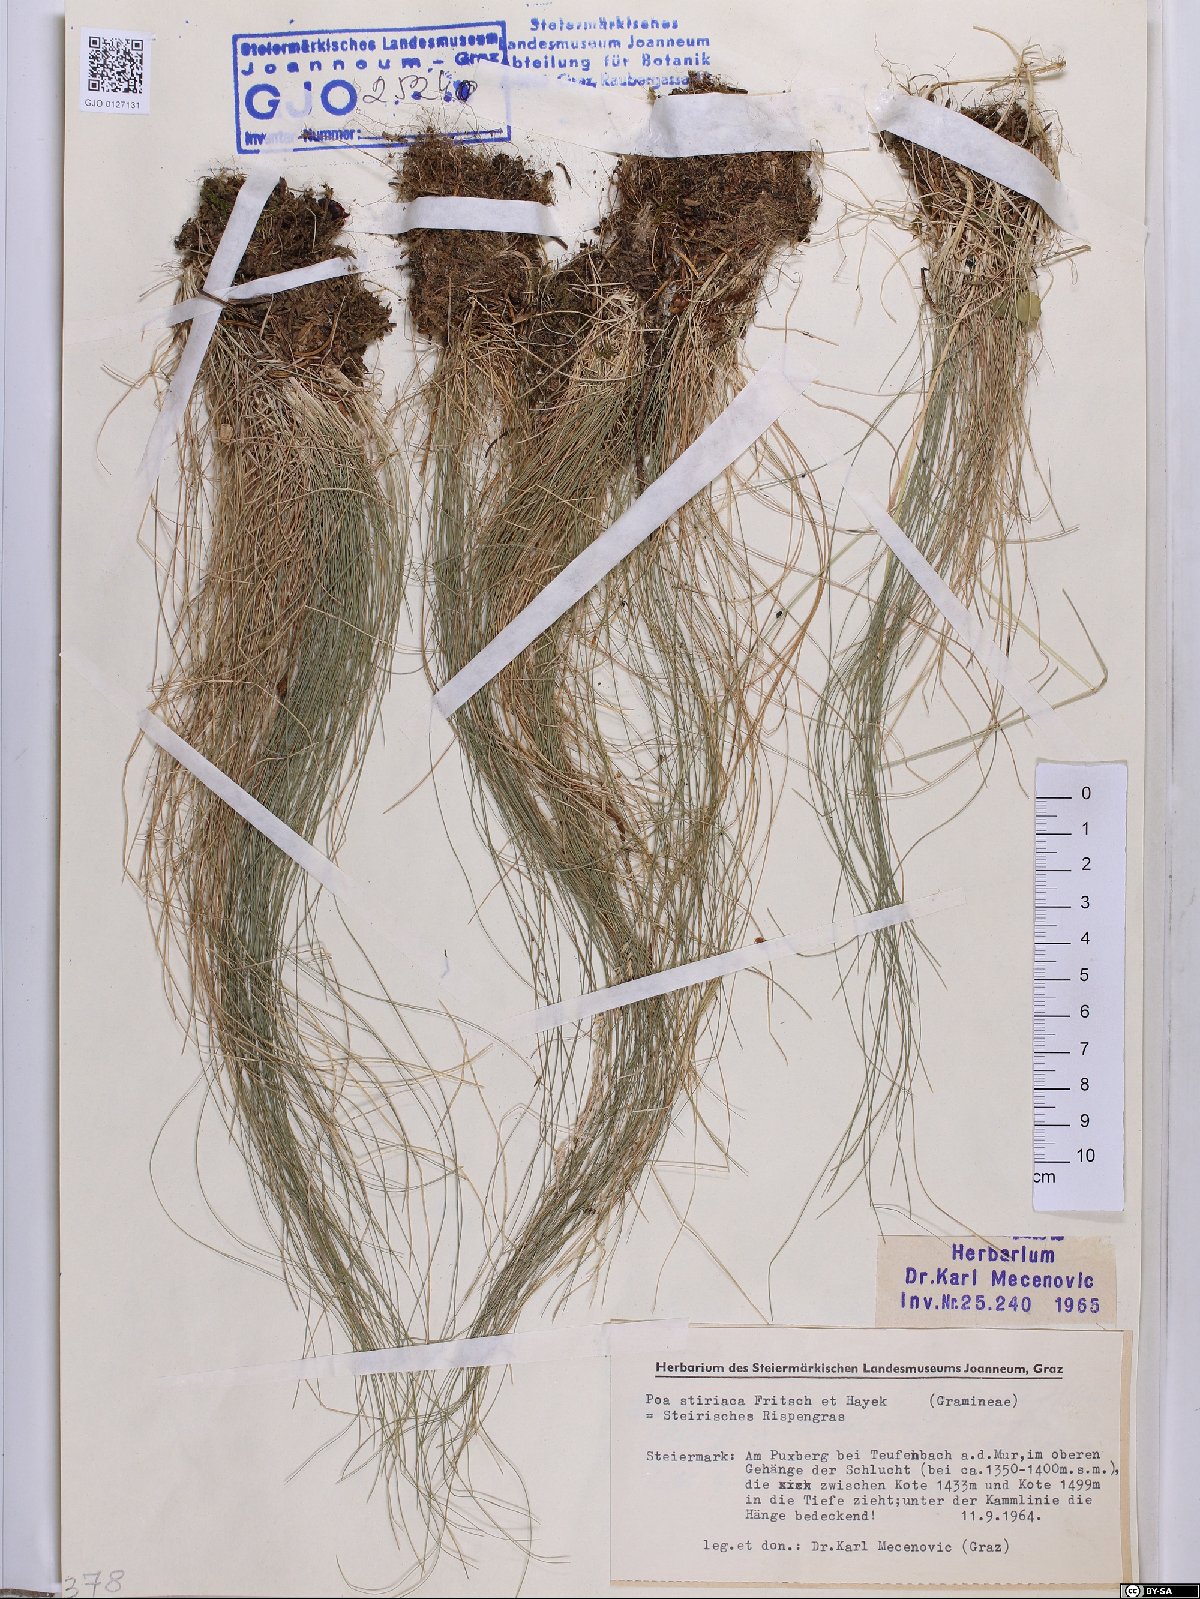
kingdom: Plantae
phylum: Tracheophyta
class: Liliopsida
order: Poales
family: Poaceae
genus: Poa
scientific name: Poa stiriaca
